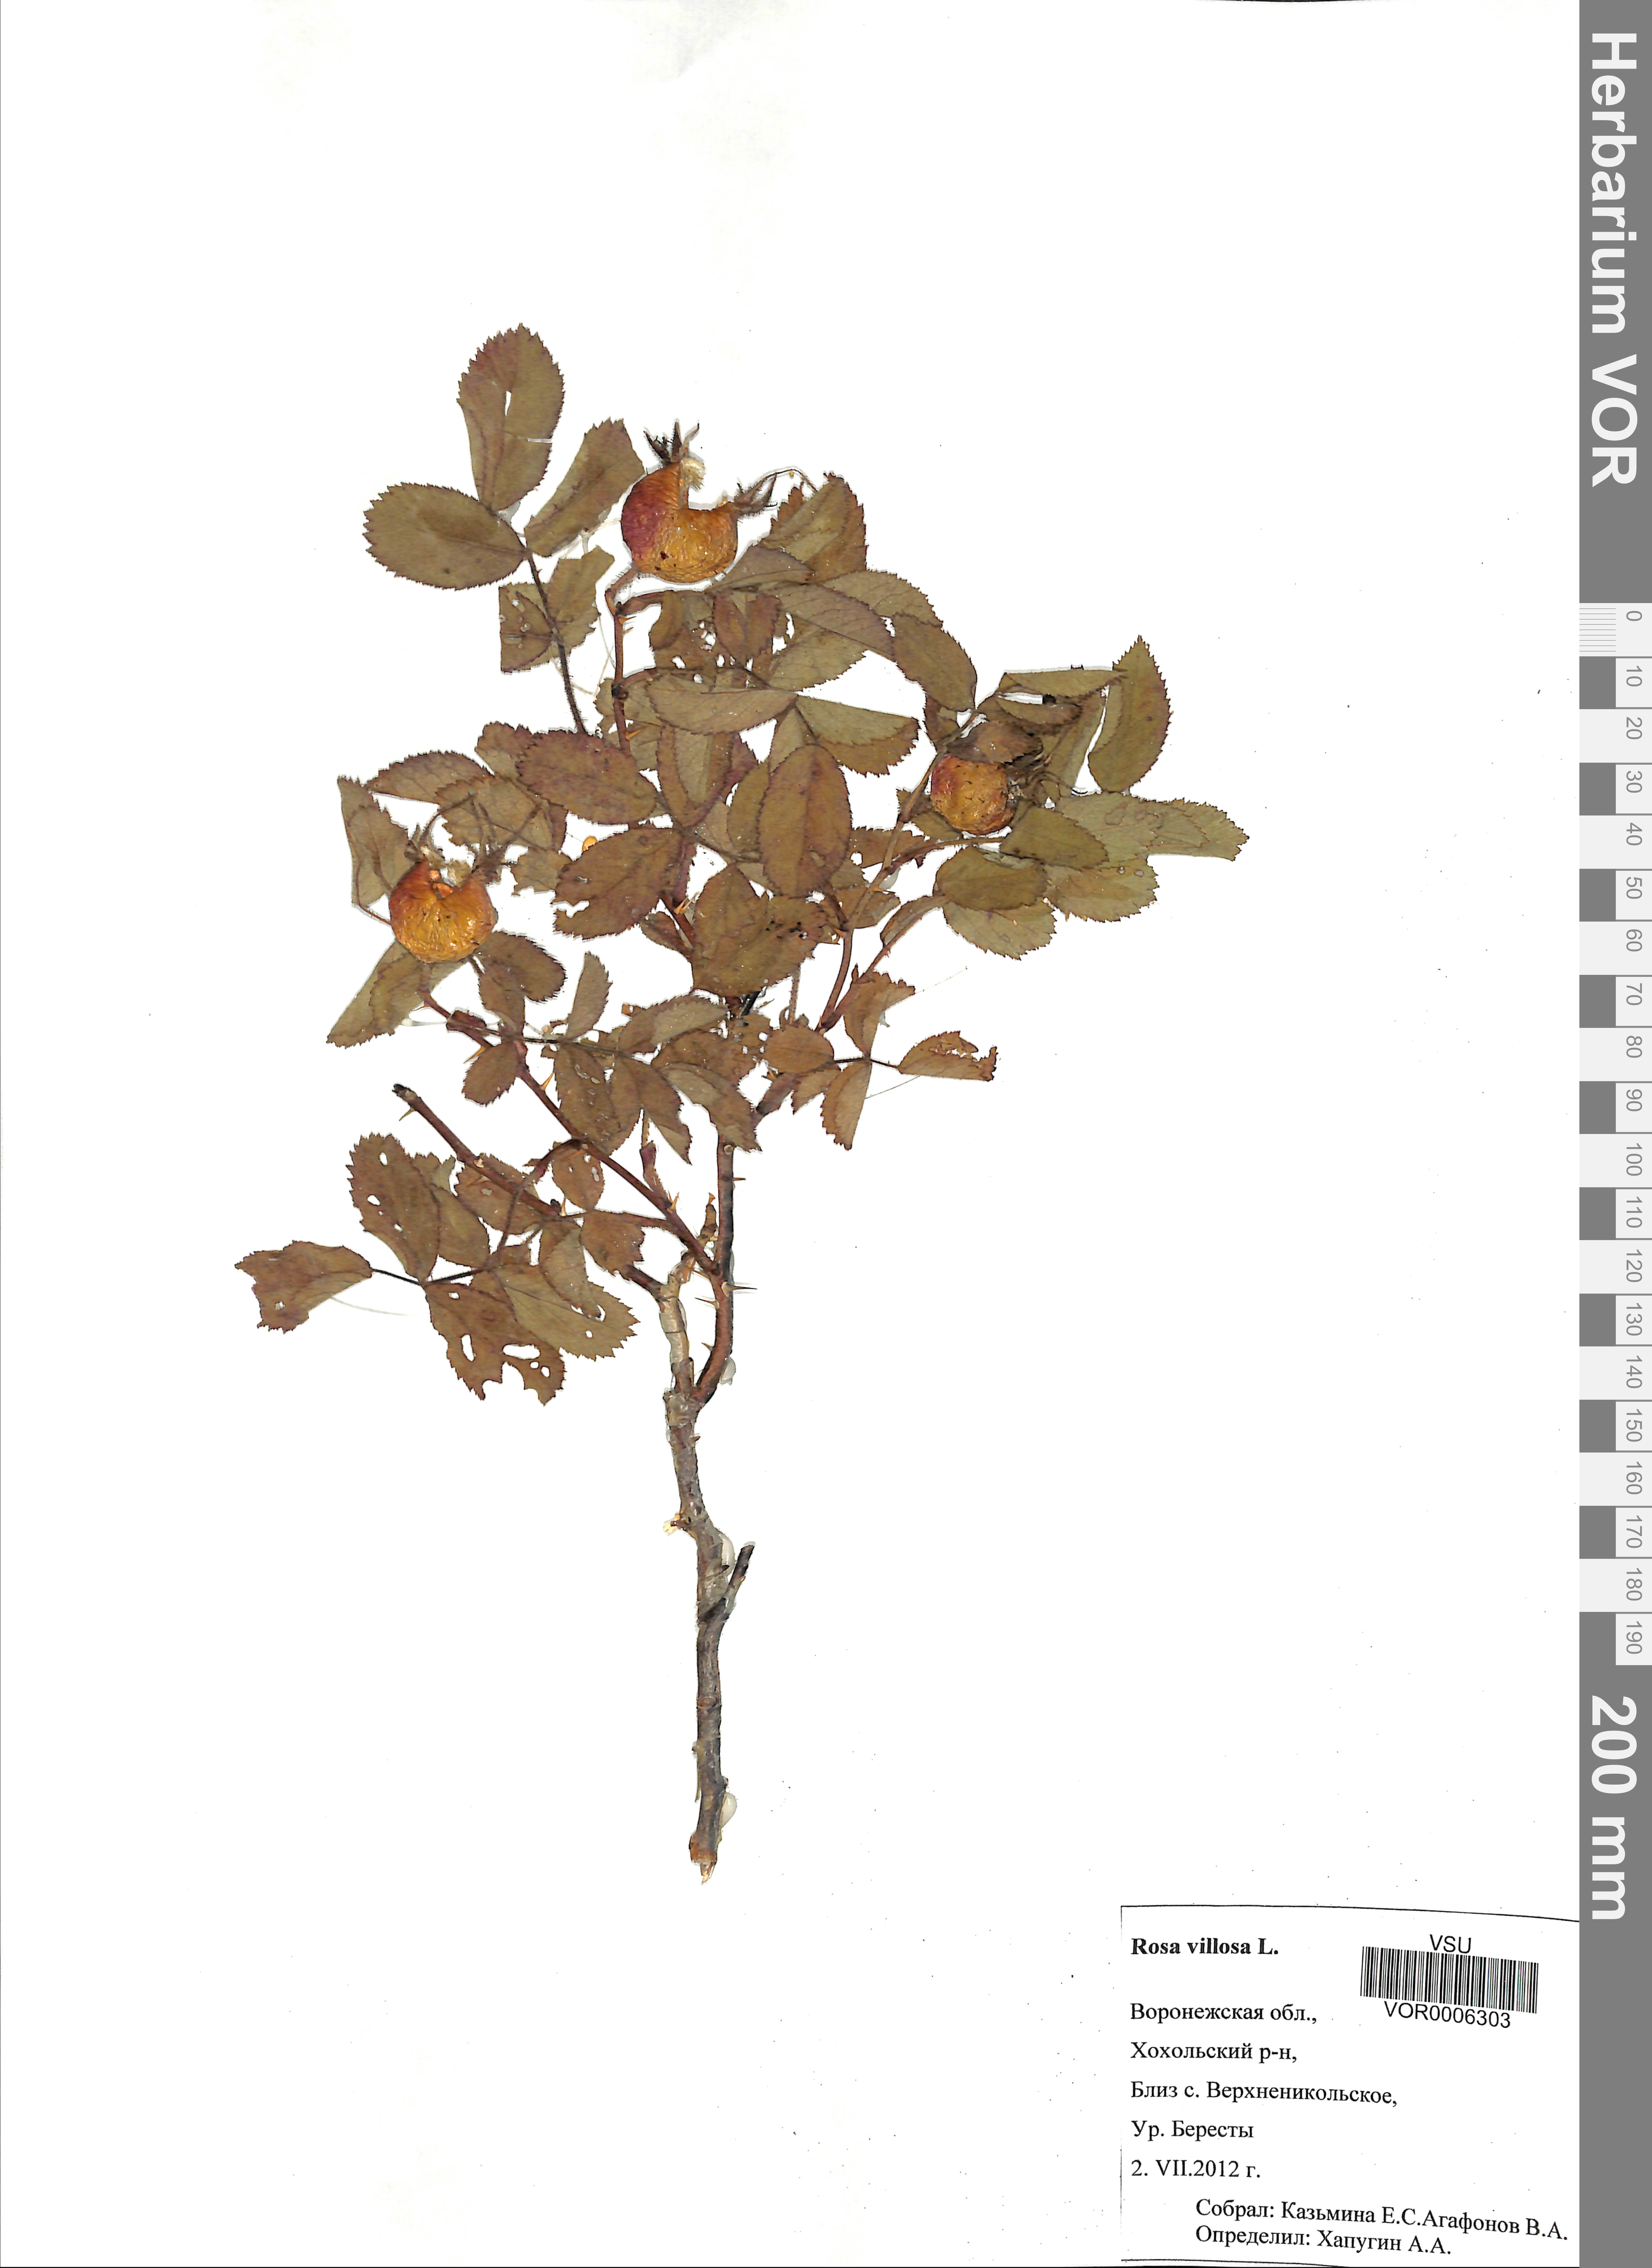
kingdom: Plantae
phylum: Tracheophyta
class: Magnoliopsida
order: Rosales
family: Rosaceae
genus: Rosa
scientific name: Rosa villosa
